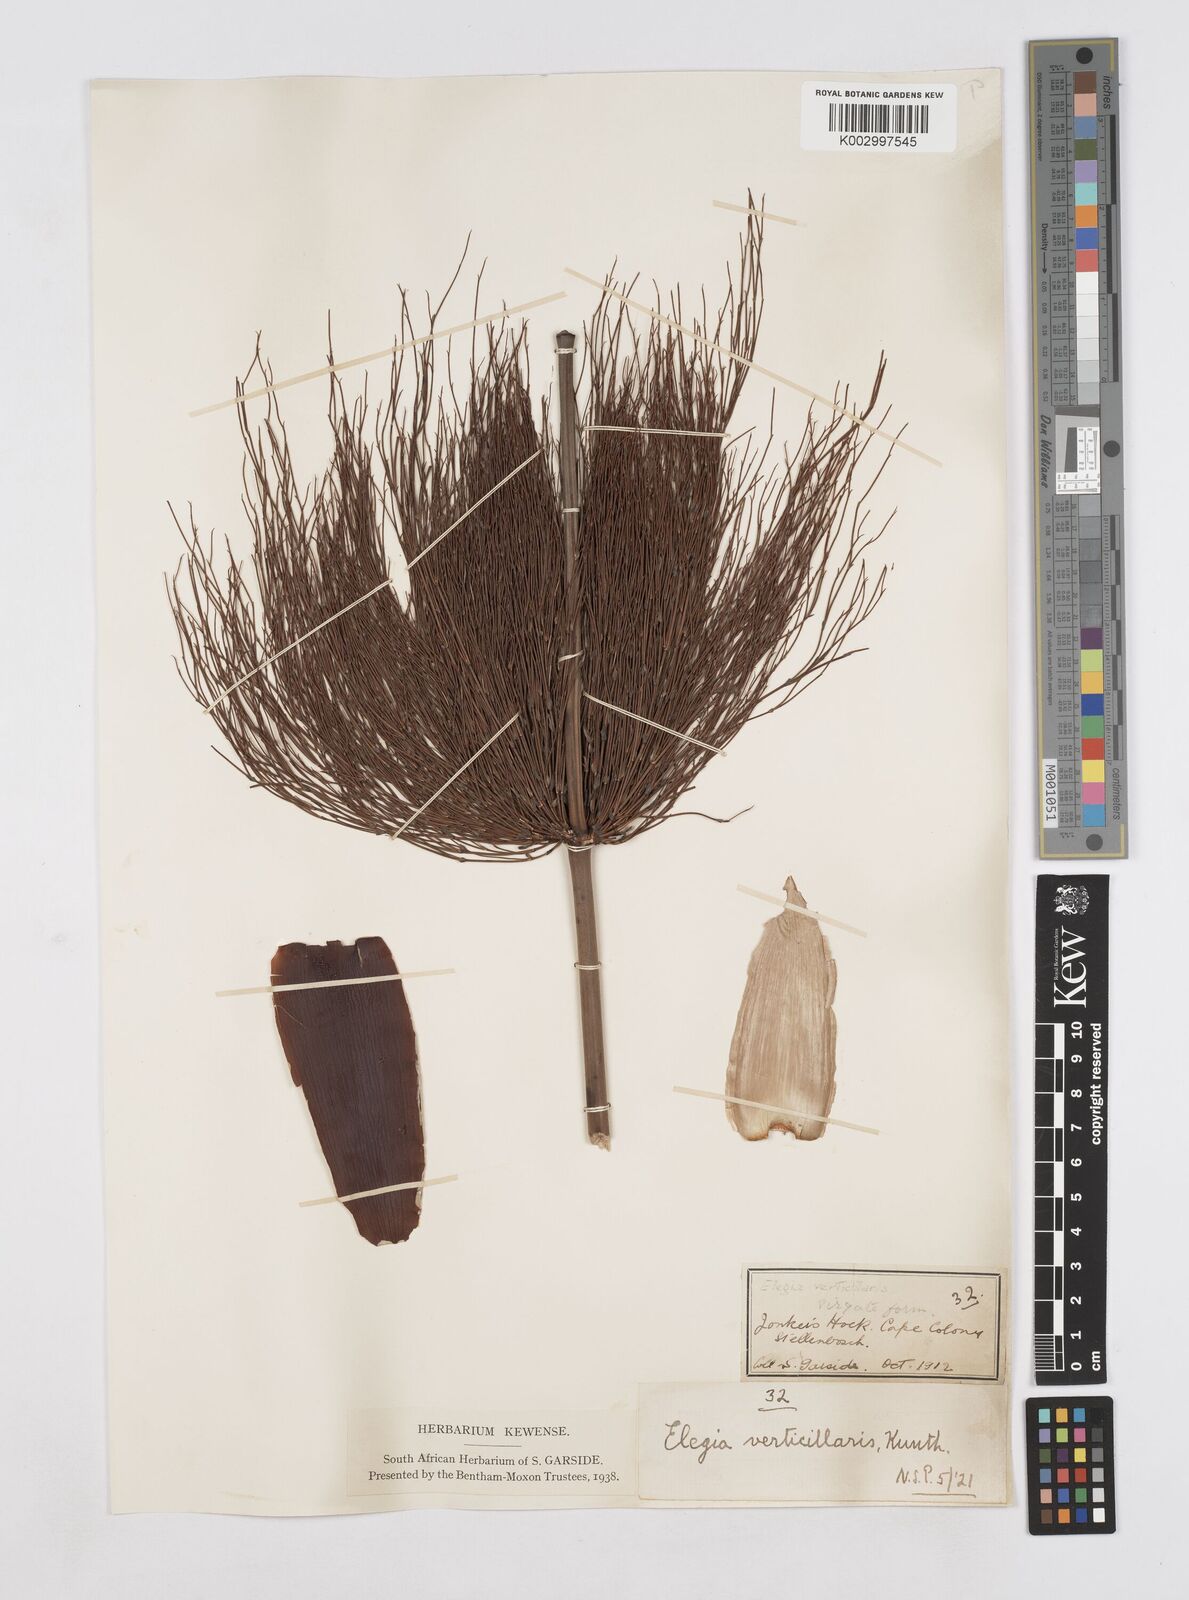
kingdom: Plantae
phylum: Tracheophyta
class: Liliopsida
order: Poales
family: Restionaceae
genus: Elegia
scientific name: Elegia capensis
